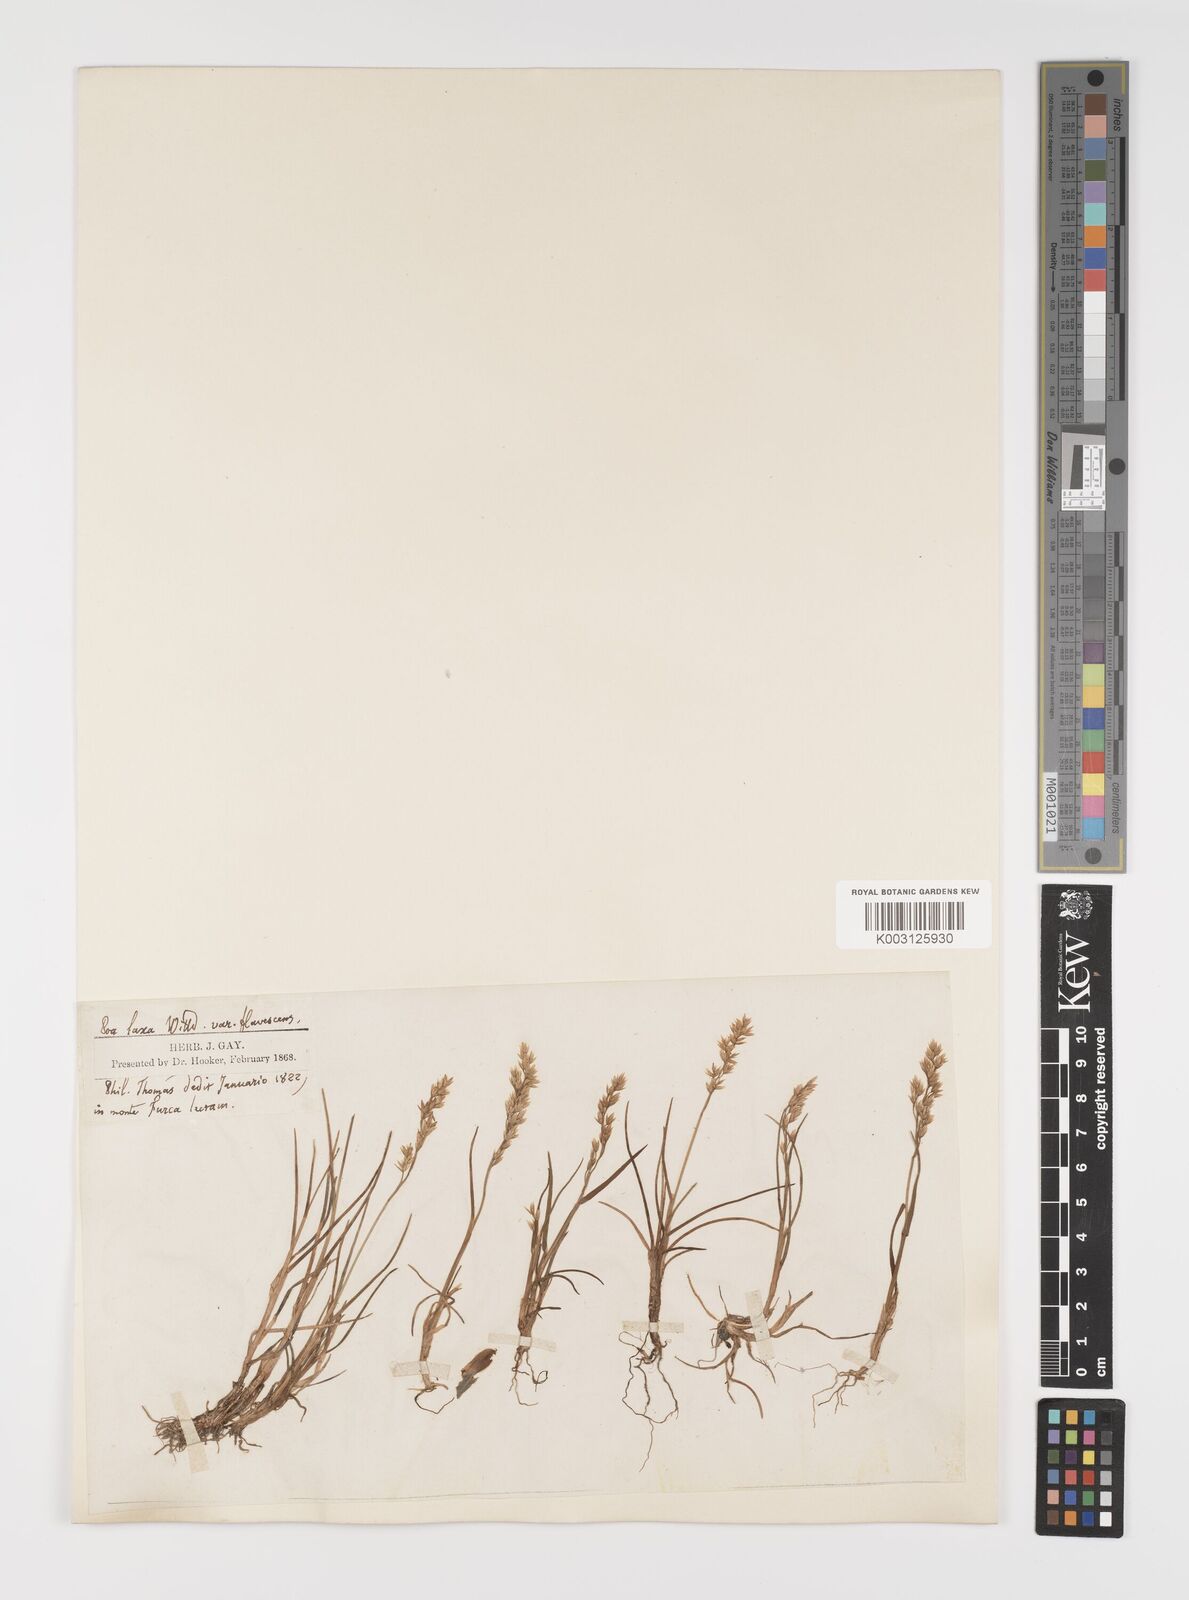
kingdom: Plantae
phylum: Tracheophyta
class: Liliopsida
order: Poales
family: Poaceae
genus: Poa
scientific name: Poa laxa
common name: Lax bluegrass
